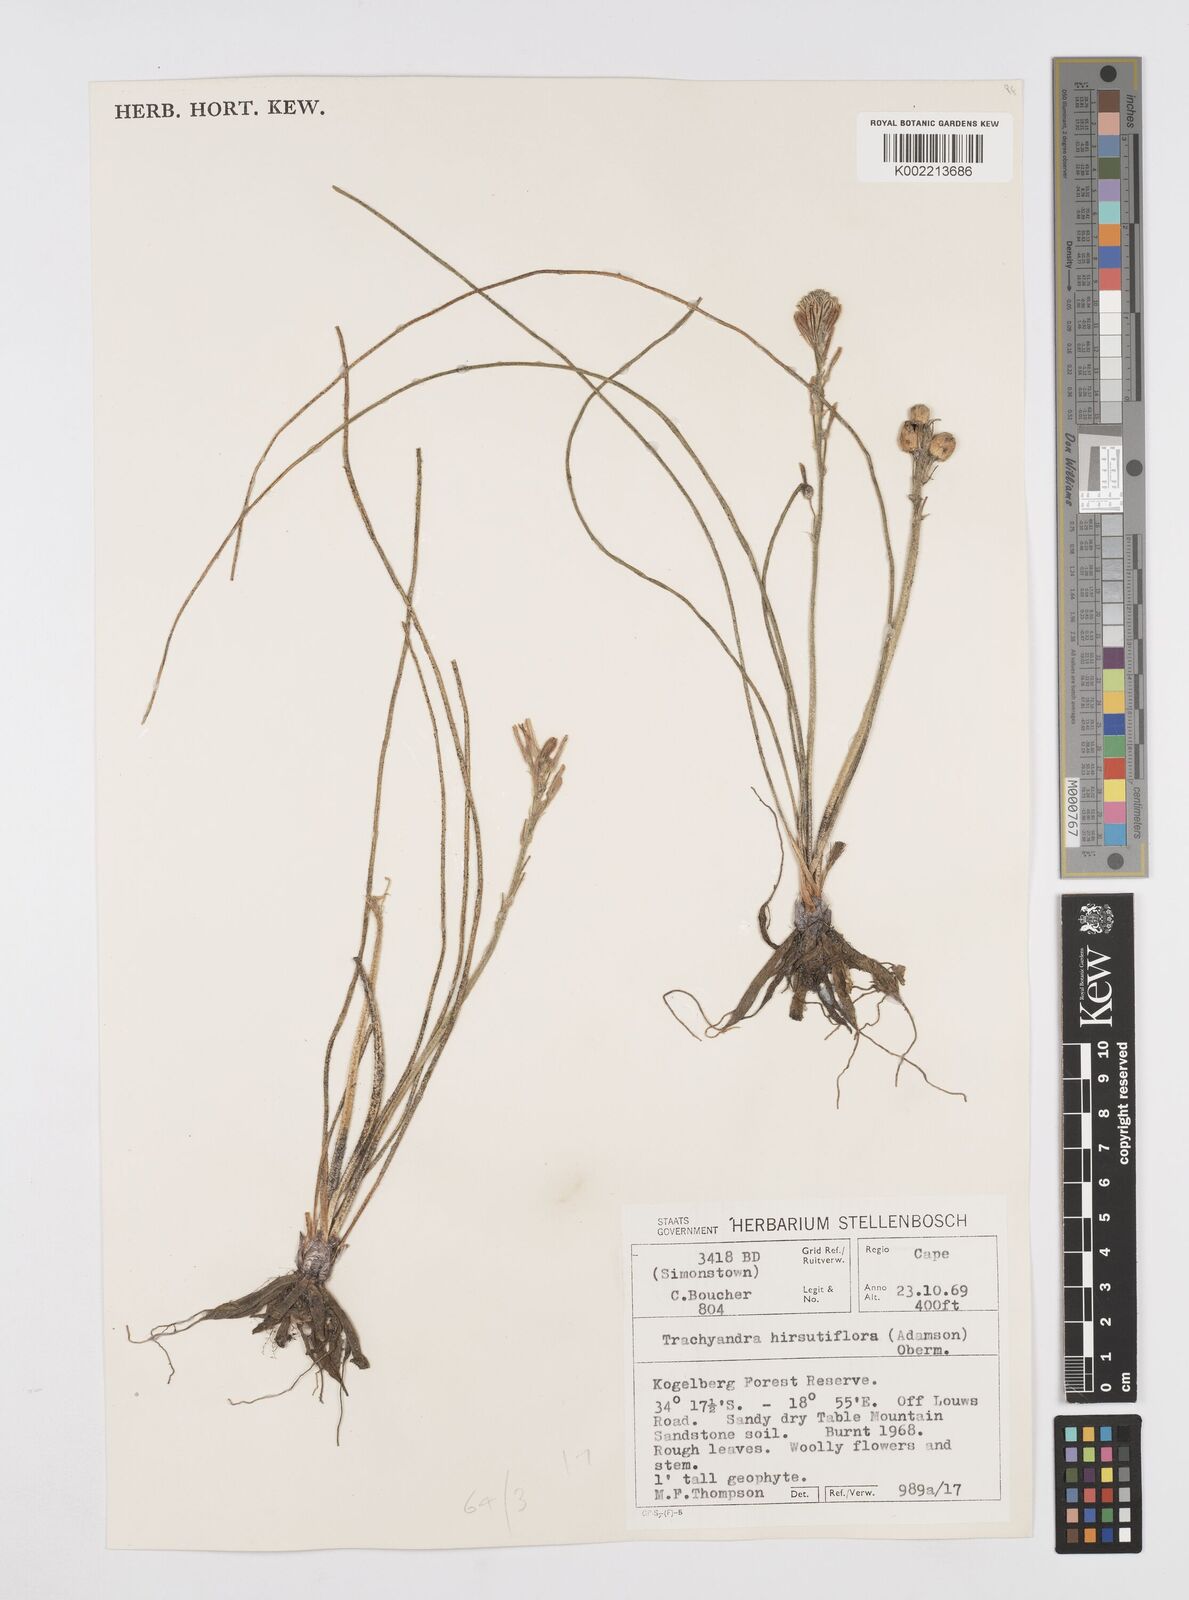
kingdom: Plantae
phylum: Tracheophyta
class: Liliopsida
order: Asparagales
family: Asphodelaceae
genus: Trachyandra
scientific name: Trachyandra hirsutiflora
